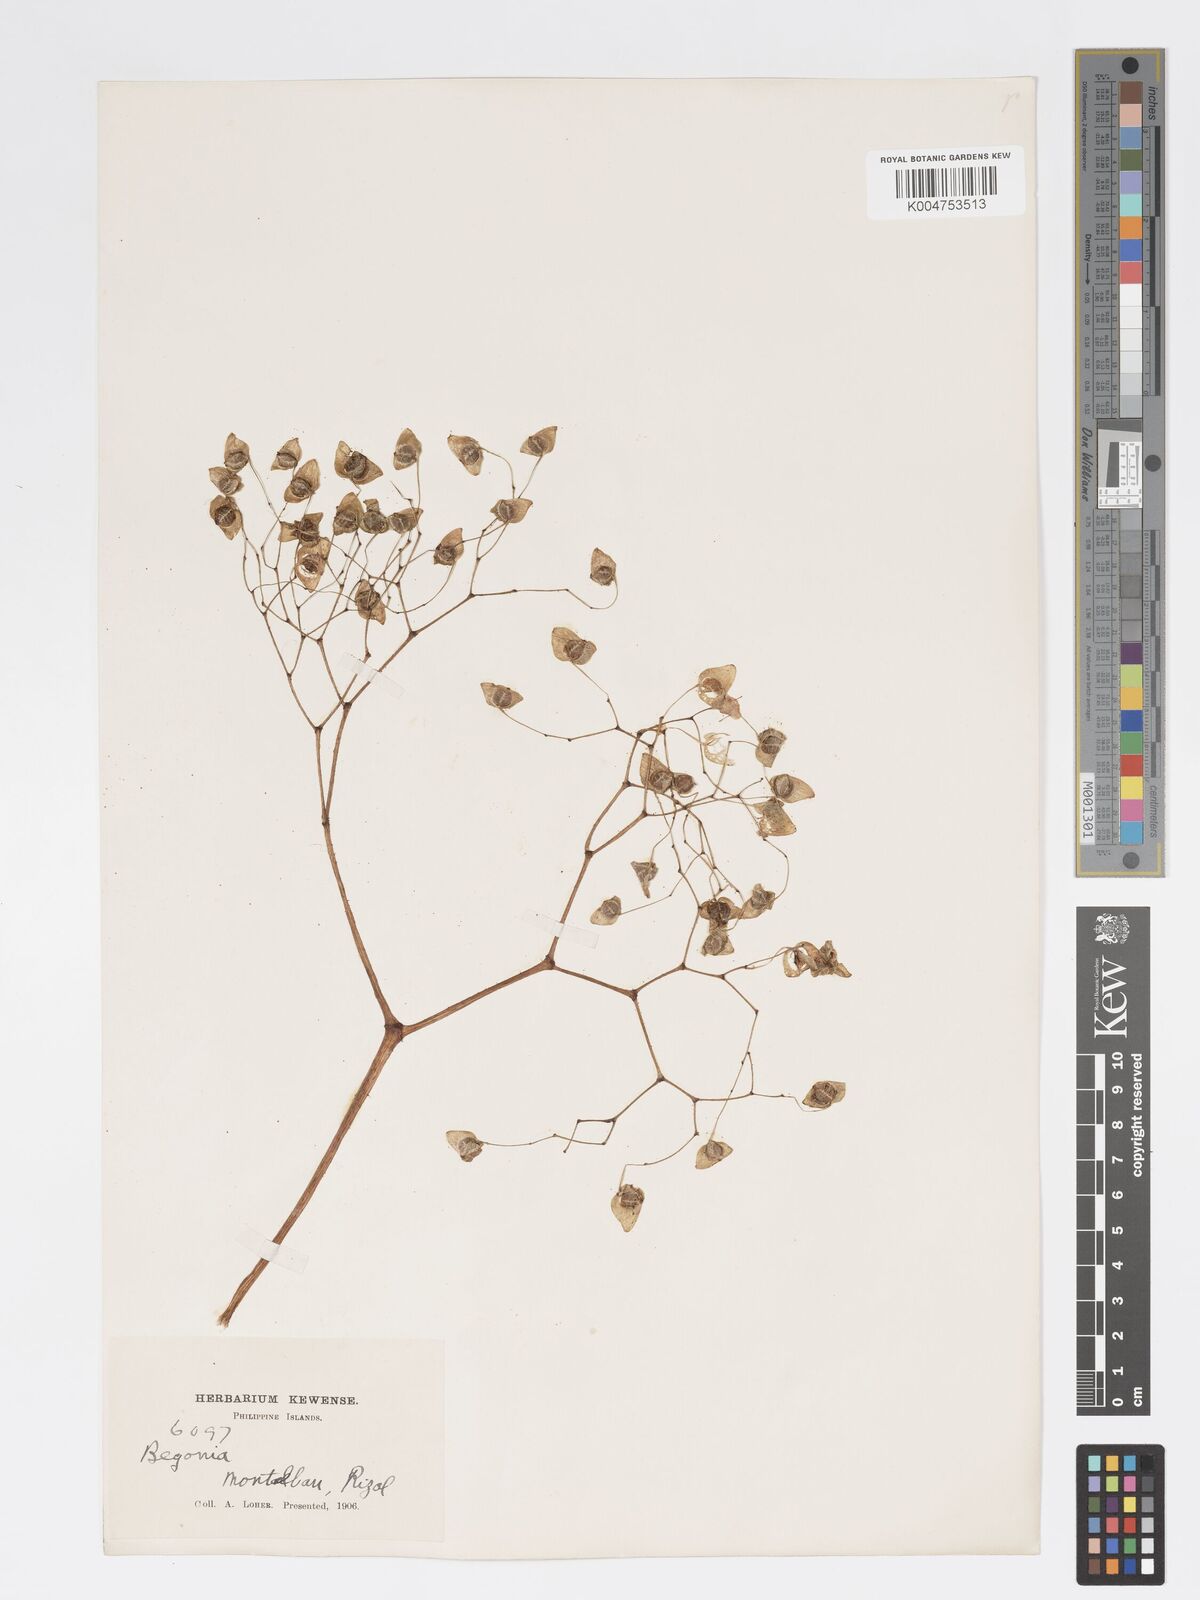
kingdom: Plantae
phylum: Tracheophyta
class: Magnoliopsida
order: Cucurbitales
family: Begoniaceae
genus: Begonia
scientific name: Begonia
